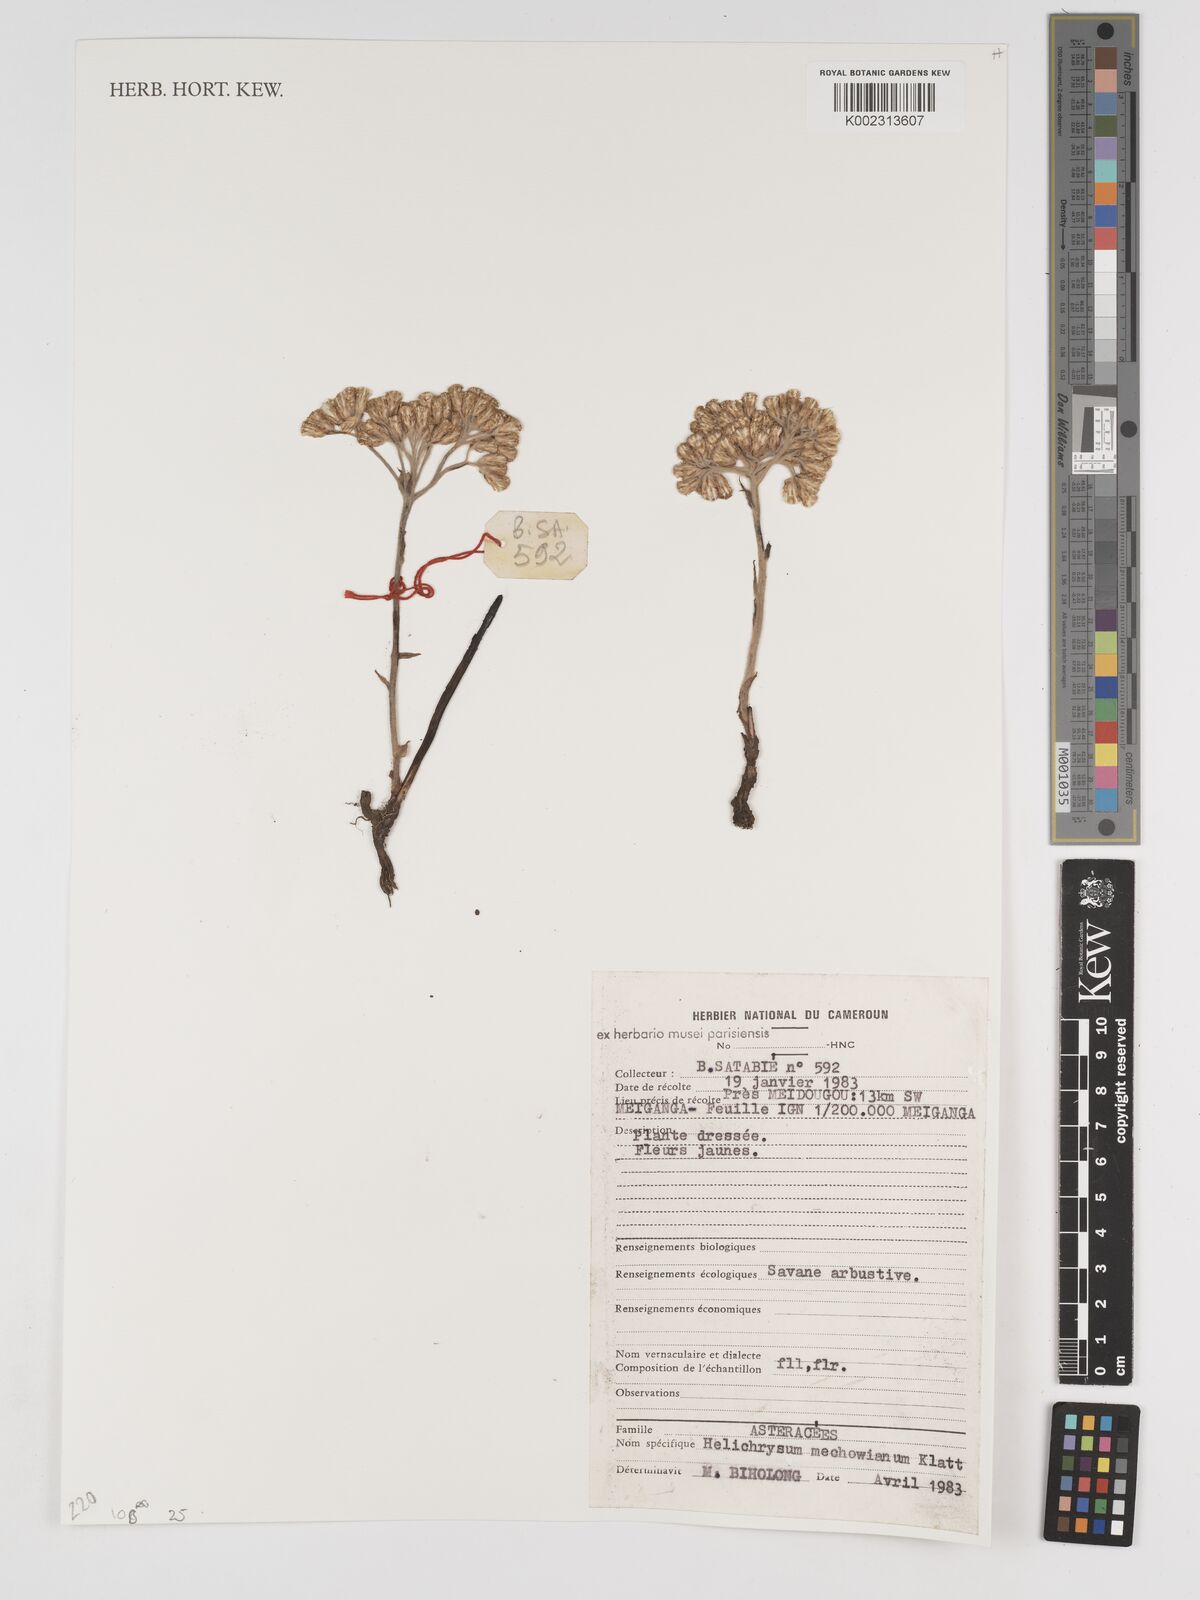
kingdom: Plantae
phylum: Tracheophyta
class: Magnoliopsida
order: Asterales
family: Asteraceae
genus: Helichrysum
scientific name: Helichrysum mechowianum
